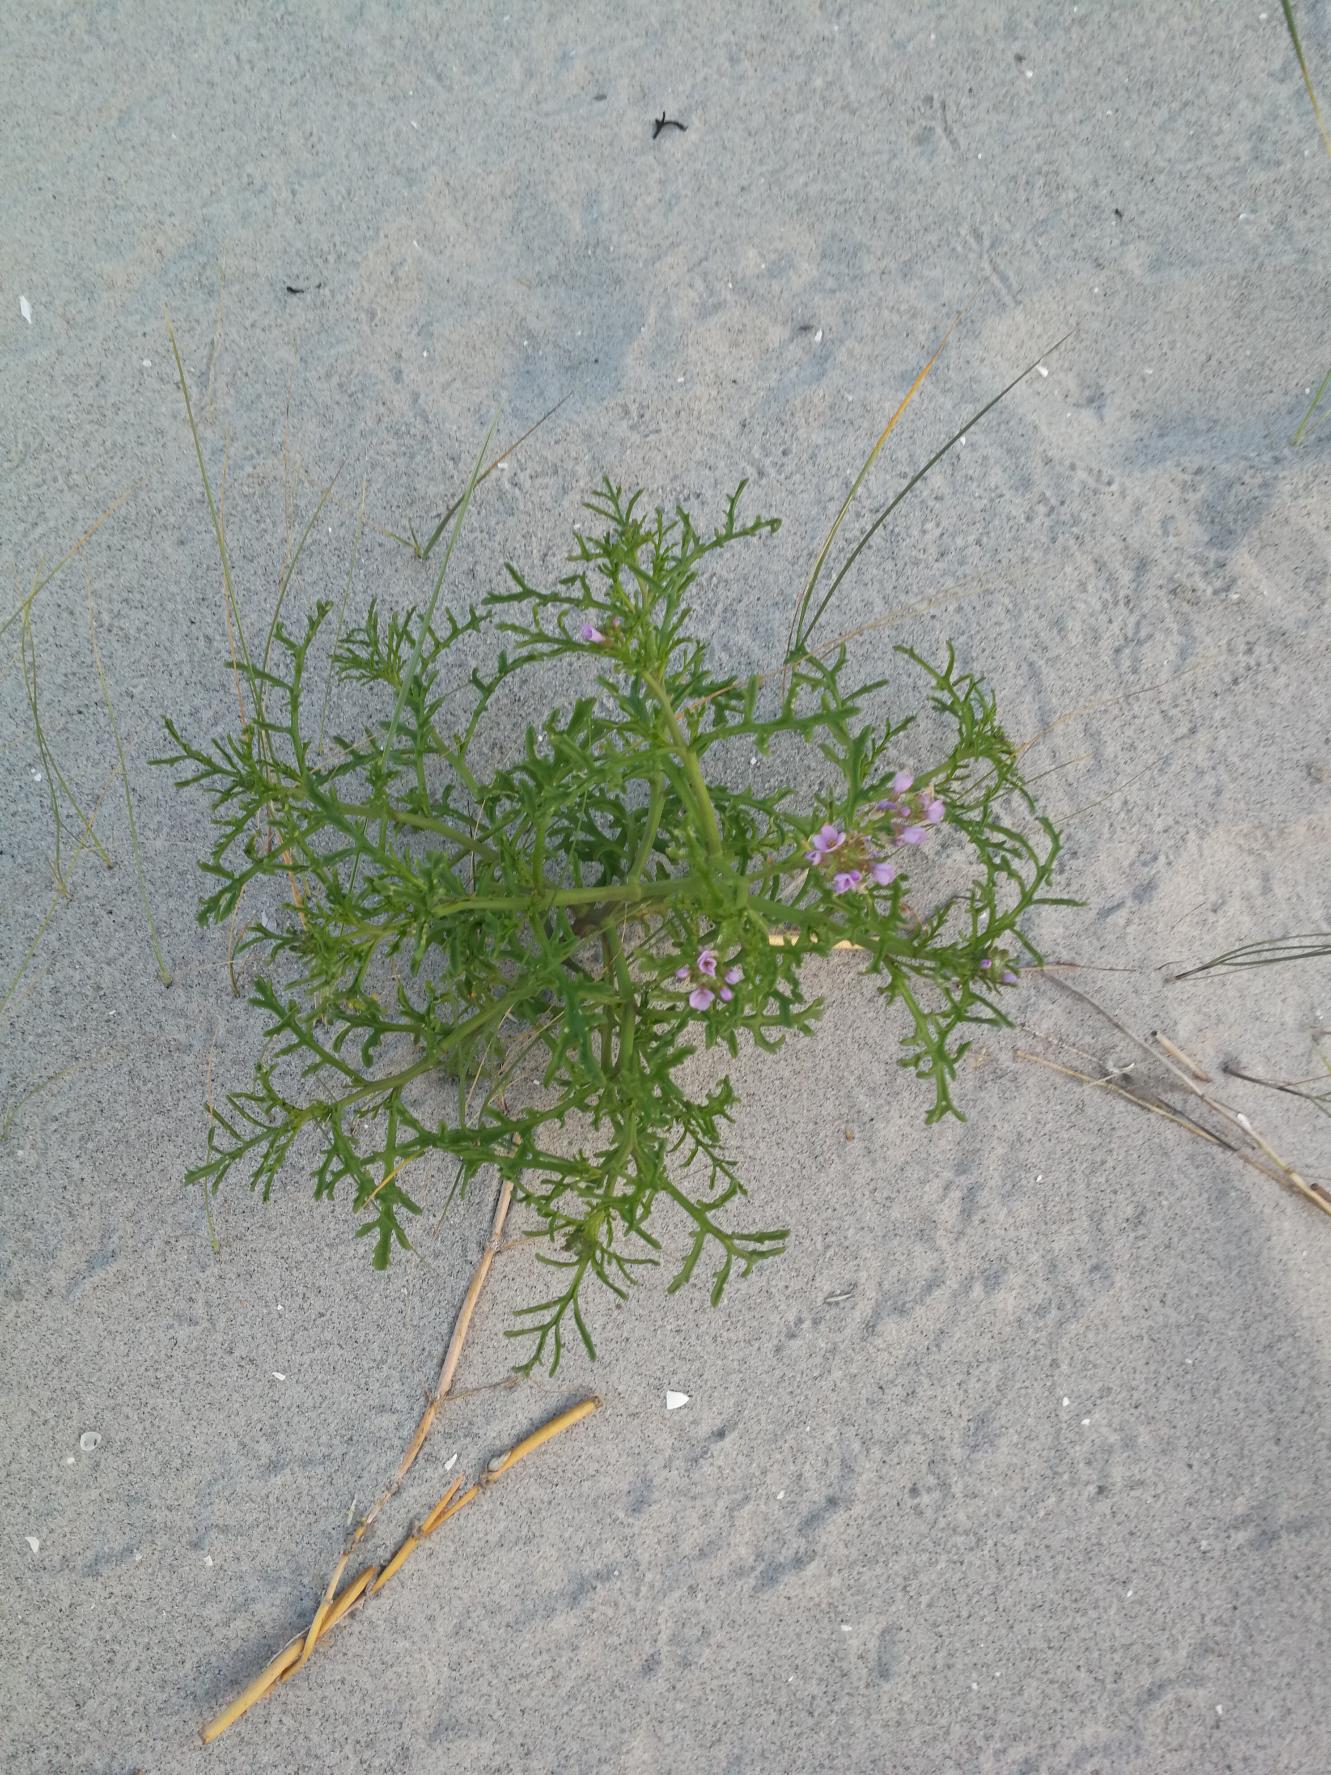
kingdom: Plantae
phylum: Tracheophyta
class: Magnoliopsida
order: Brassicales
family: Brassicaceae
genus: Cakile
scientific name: Cakile maritima
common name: Strandsennep
